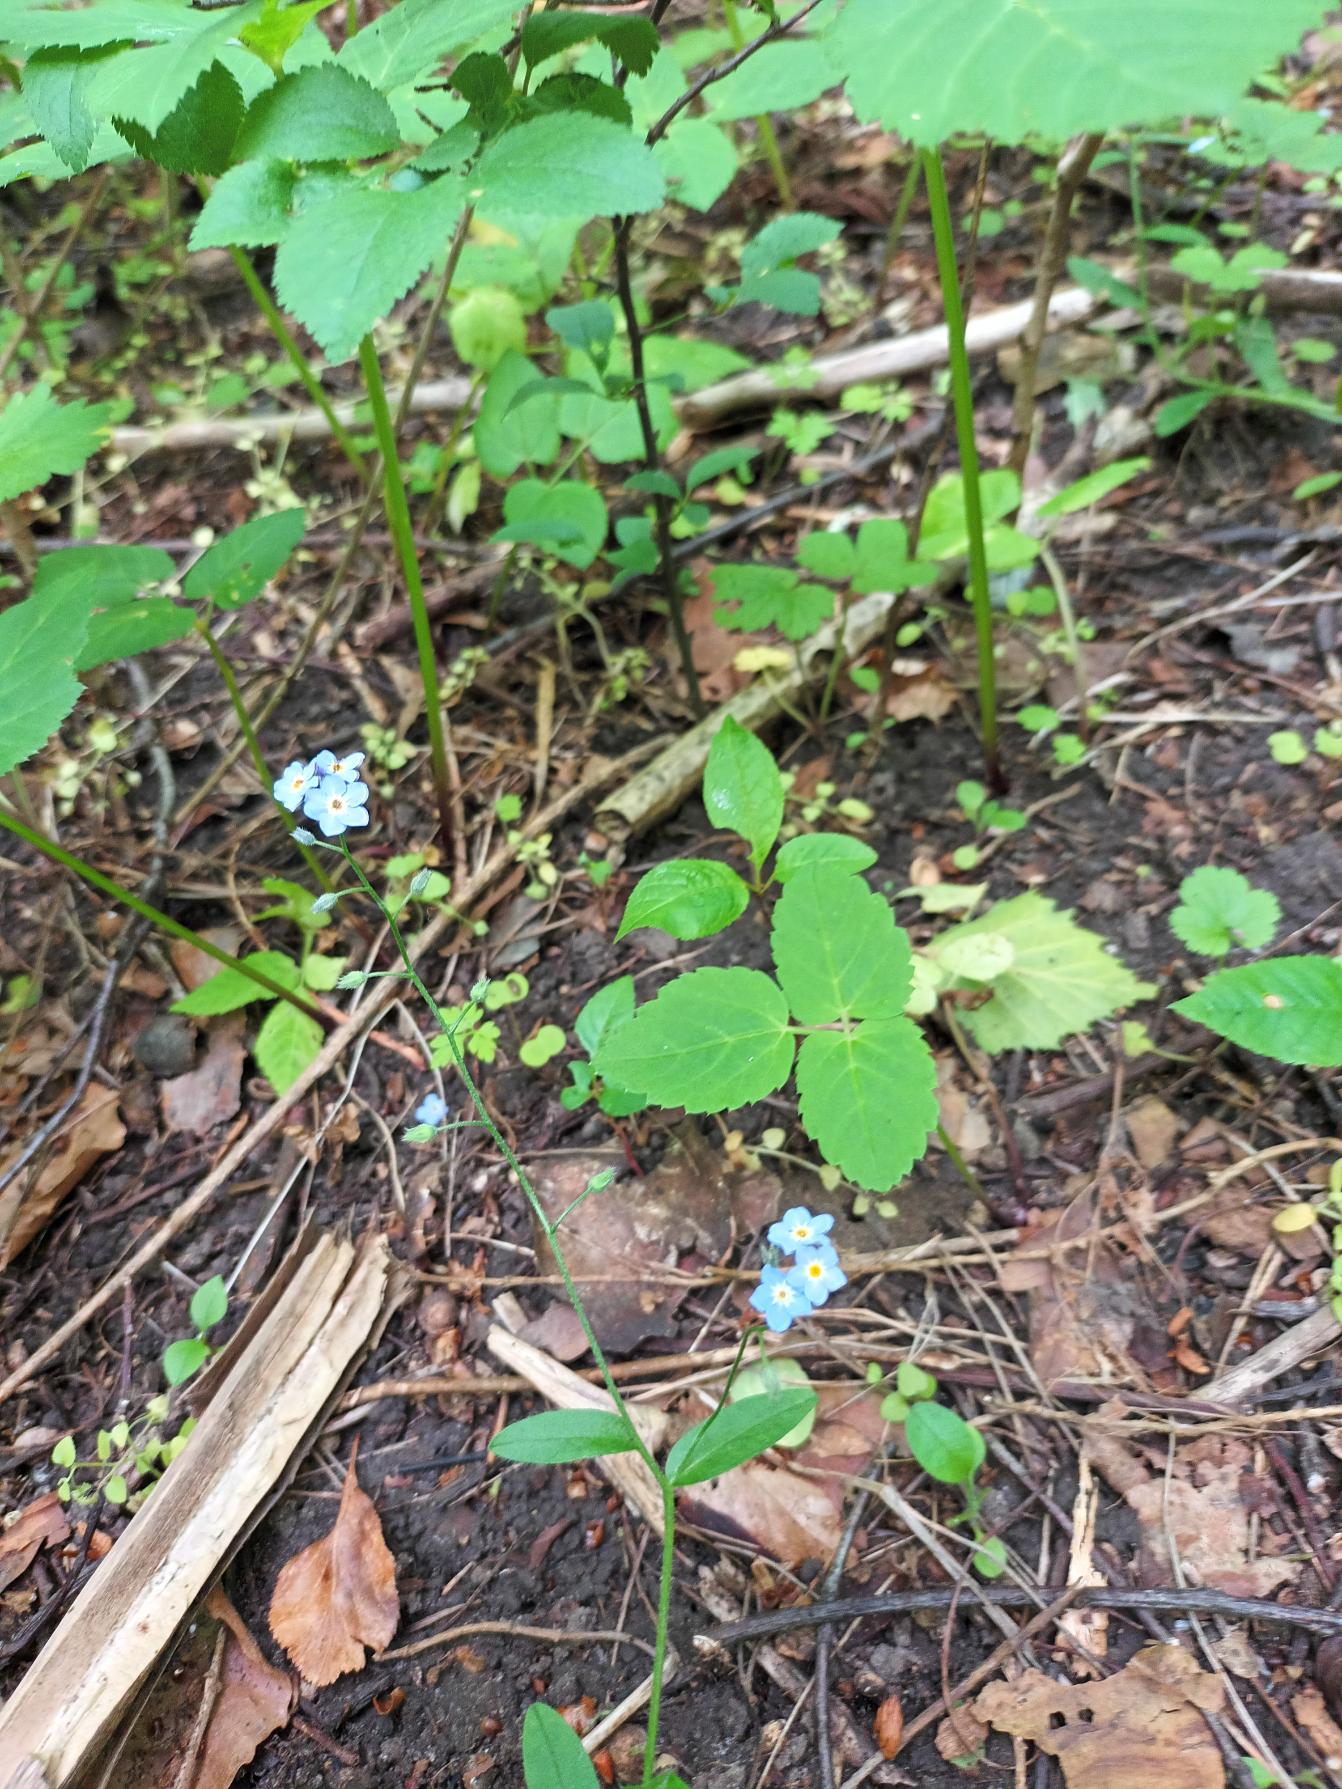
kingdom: Plantae
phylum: Tracheophyta
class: Magnoliopsida
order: Boraginales
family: Boraginaceae
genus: Myosotis
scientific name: Myosotis sylvatica
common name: Skov-forglemmigej
